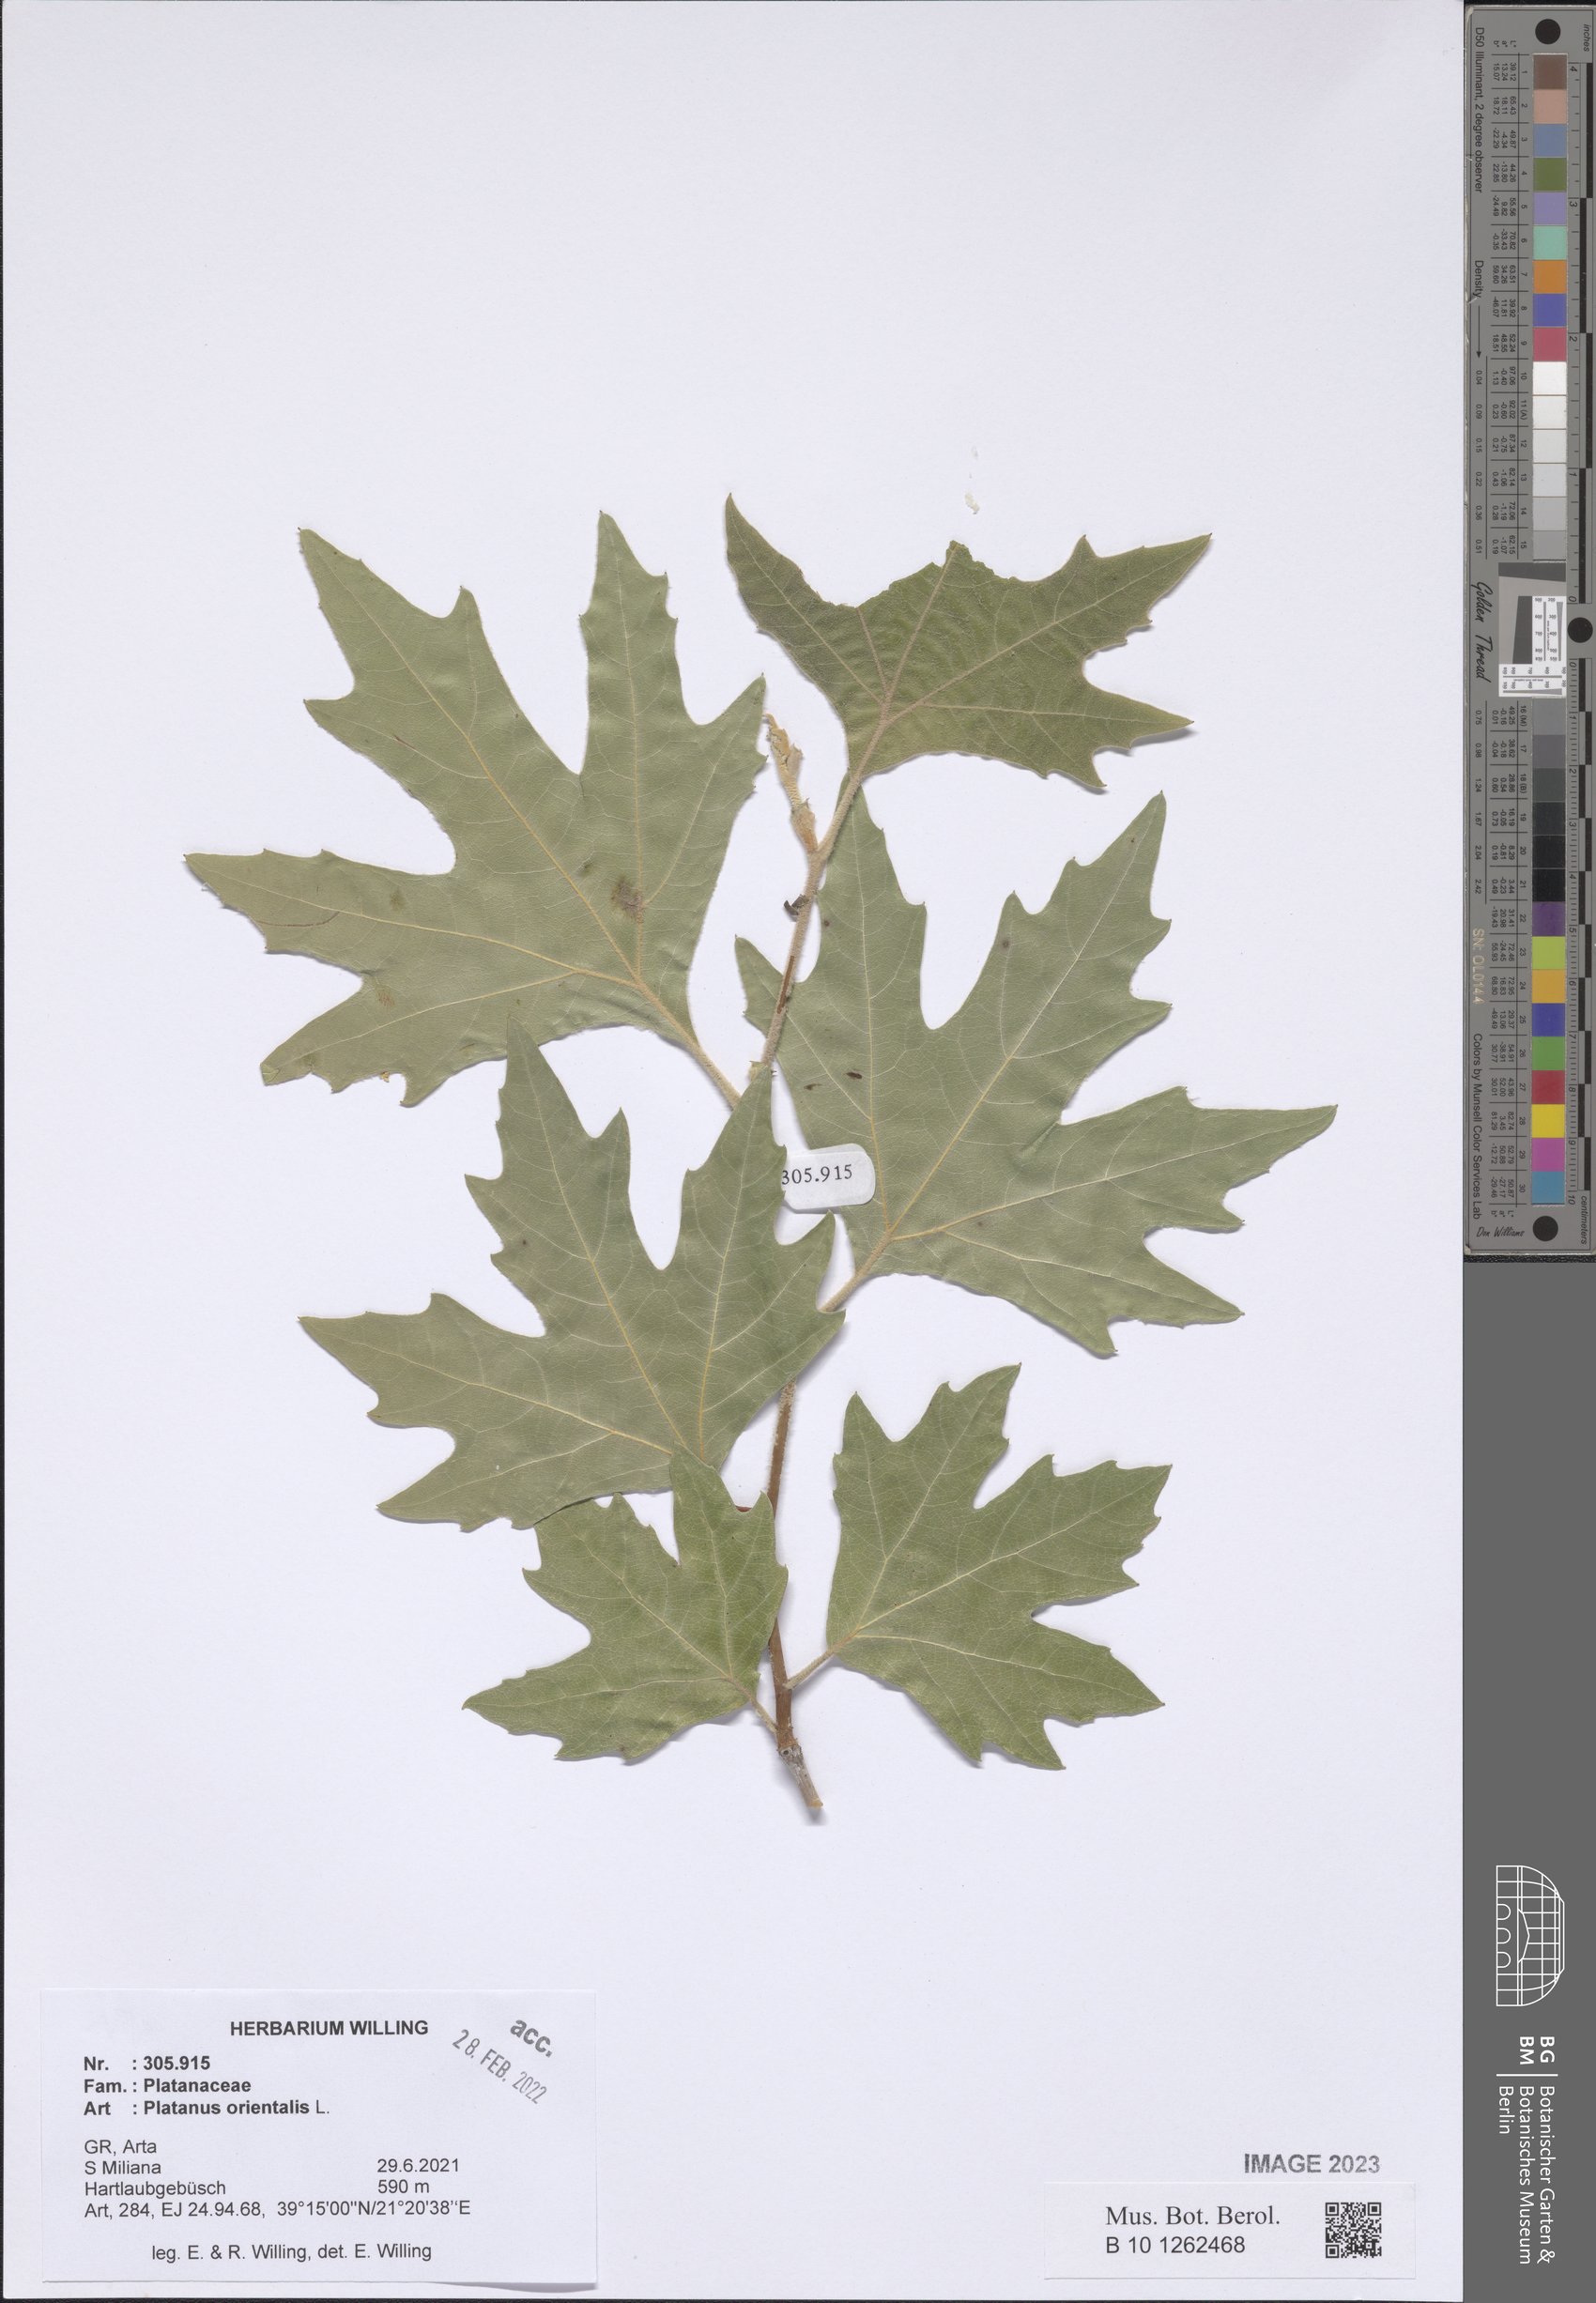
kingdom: Plantae
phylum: Tracheophyta
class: Magnoliopsida
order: Proteales
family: Platanaceae
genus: Platanus
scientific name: Platanus orientalis
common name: Oriental plane
